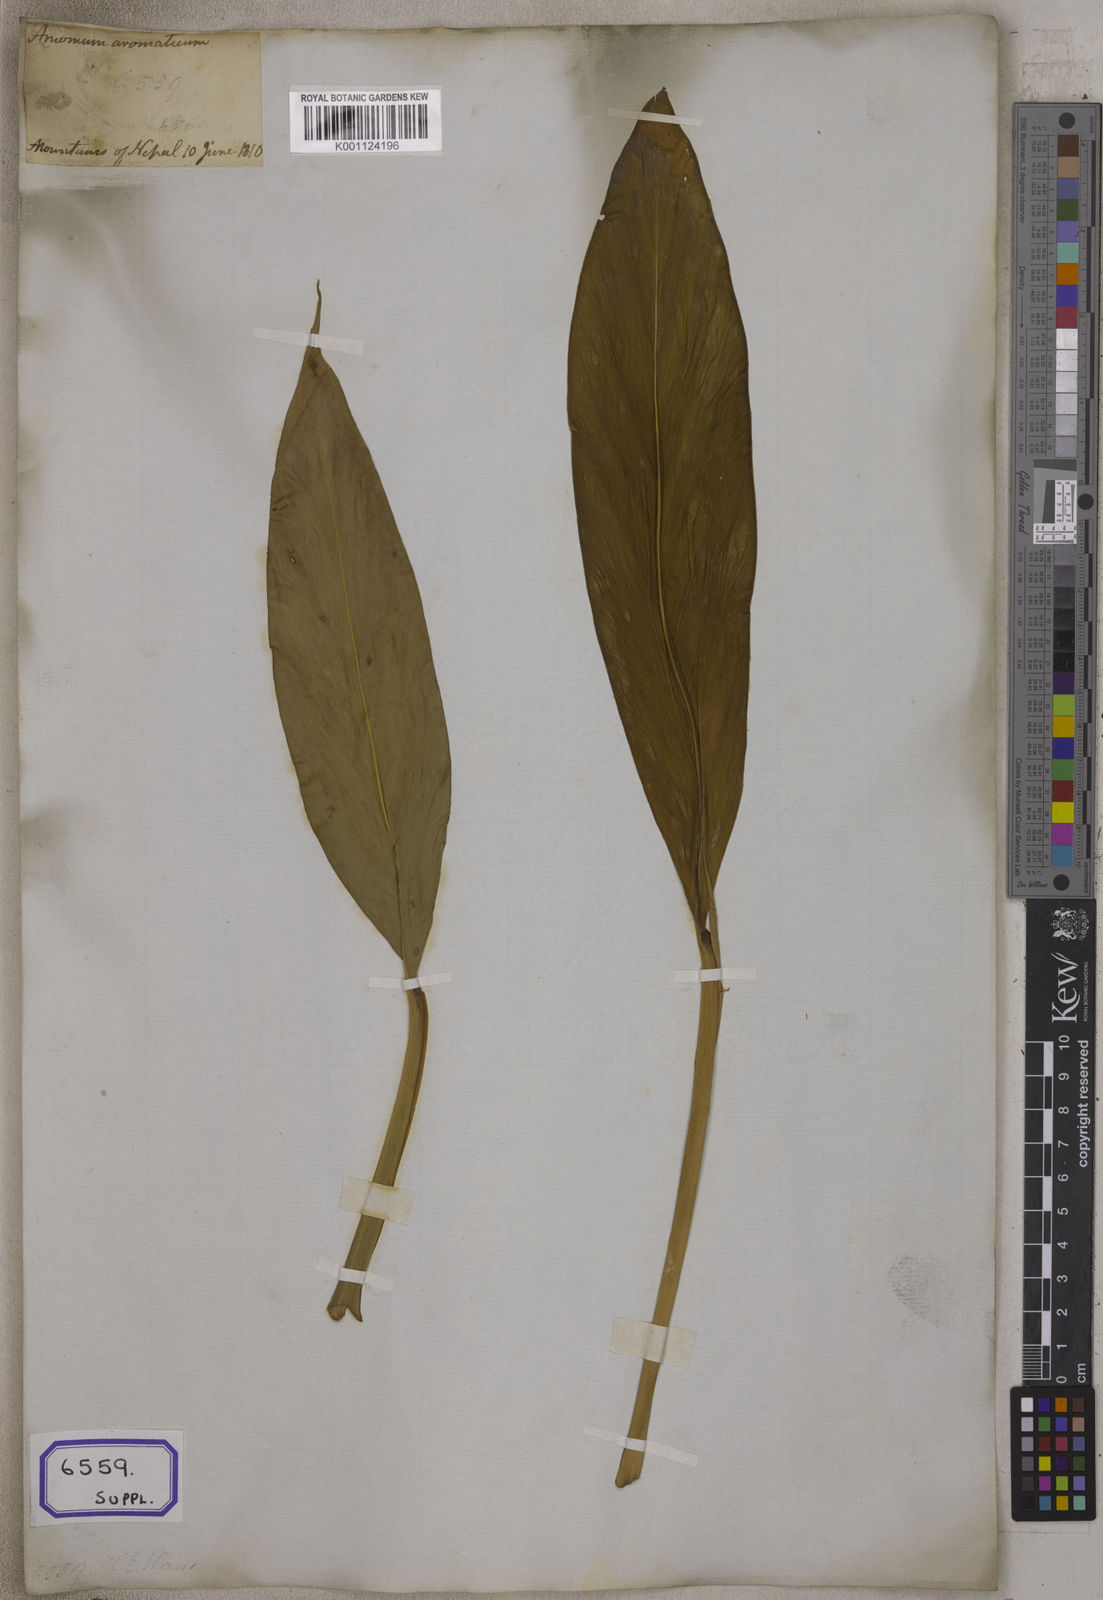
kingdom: Plantae
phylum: Tracheophyta
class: Liliopsida
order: Zingiberales
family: Zingiberaceae
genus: Wurfbainia
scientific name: Wurfbainia aromatica
